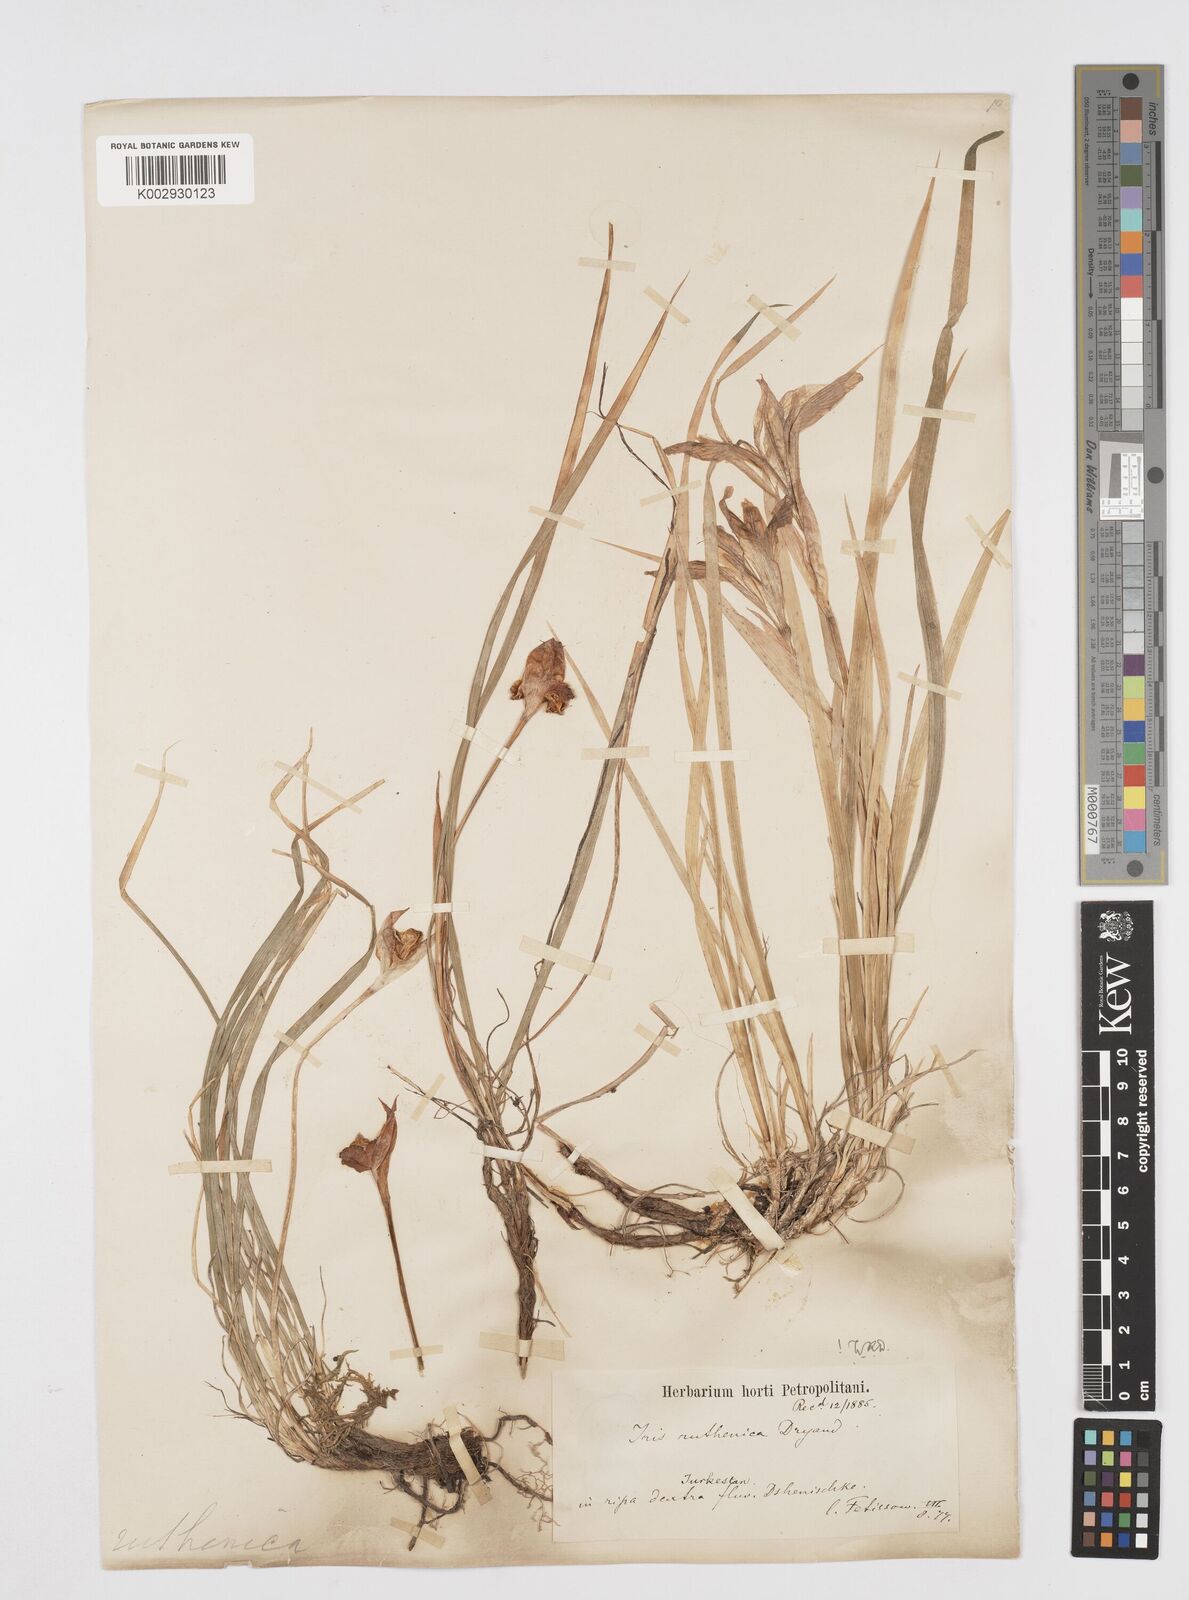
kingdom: Plantae
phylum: Tracheophyta
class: Liliopsida
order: Asparagales
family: Iridaceae
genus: Iris
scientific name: Iris ruthenica
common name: Purple-bract iris
